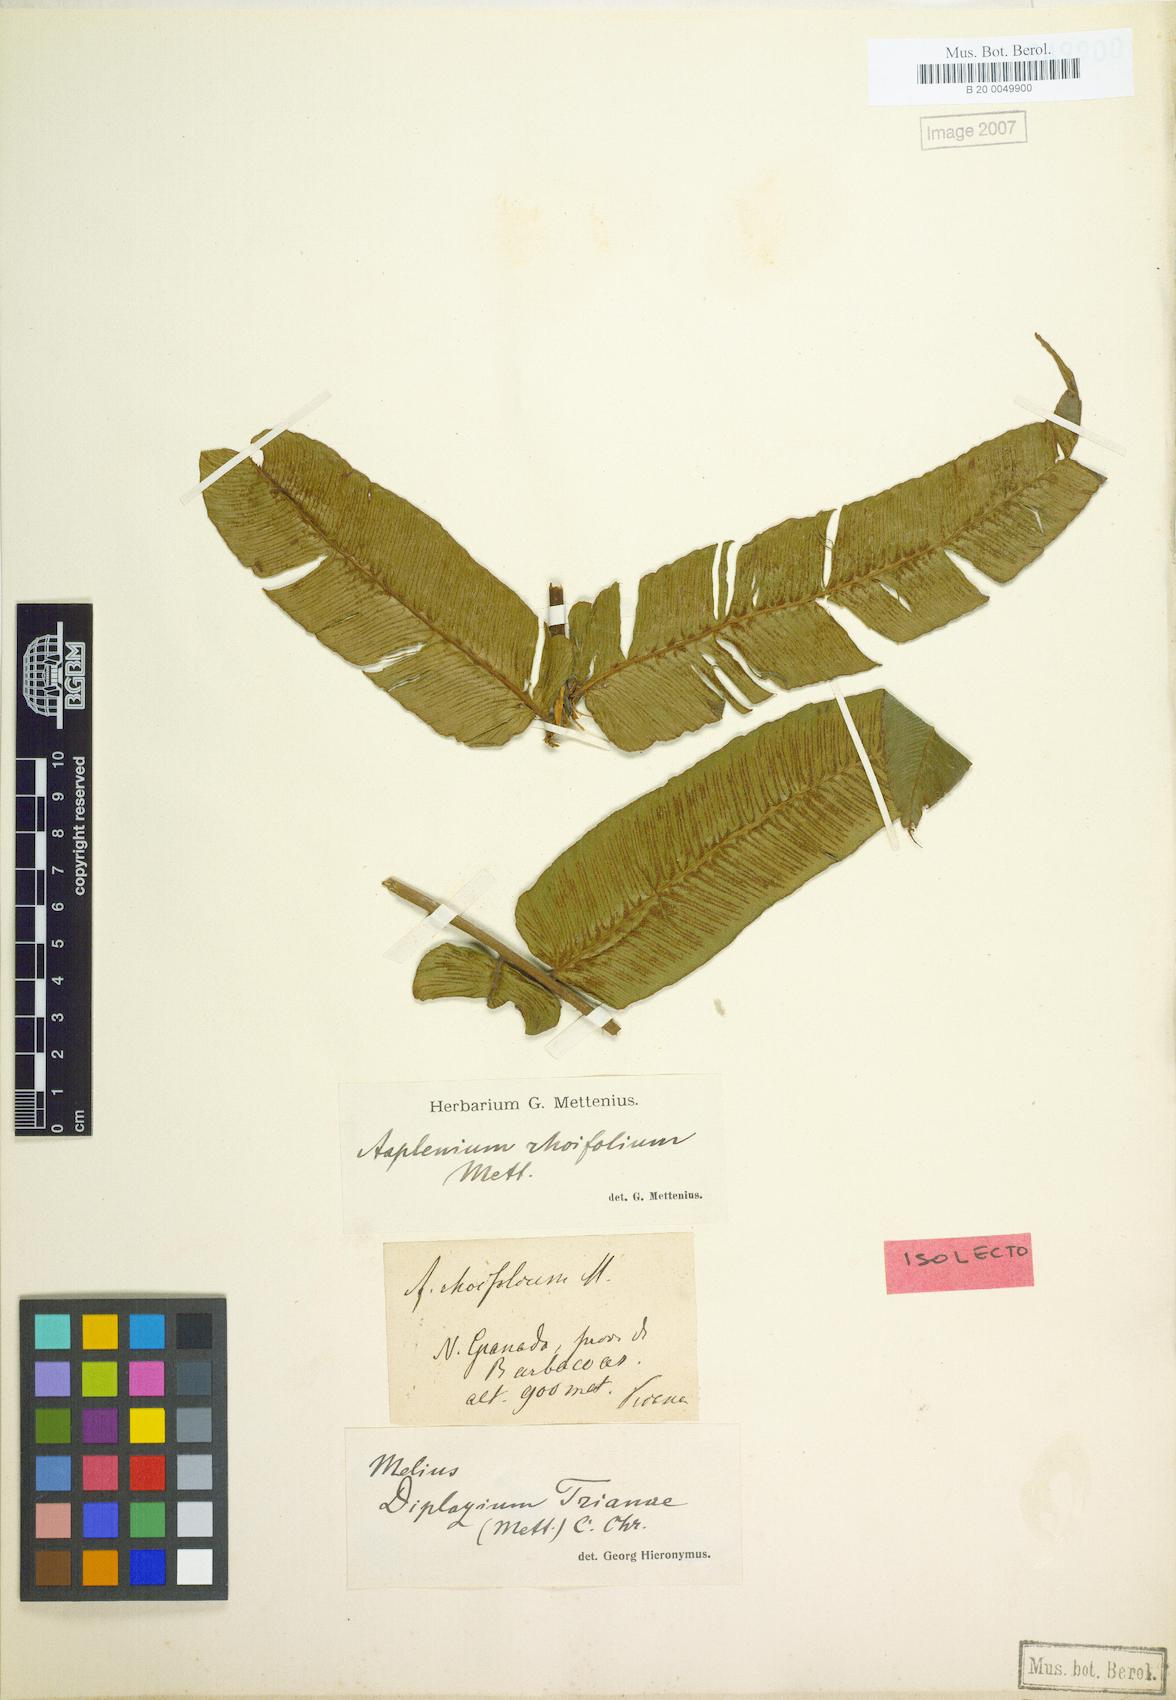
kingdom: Plantae
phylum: Tracheophyta
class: Polypodiopsida
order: Polypodiales
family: Athyriaceae
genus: Diplazium
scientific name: Diplazium trianae
